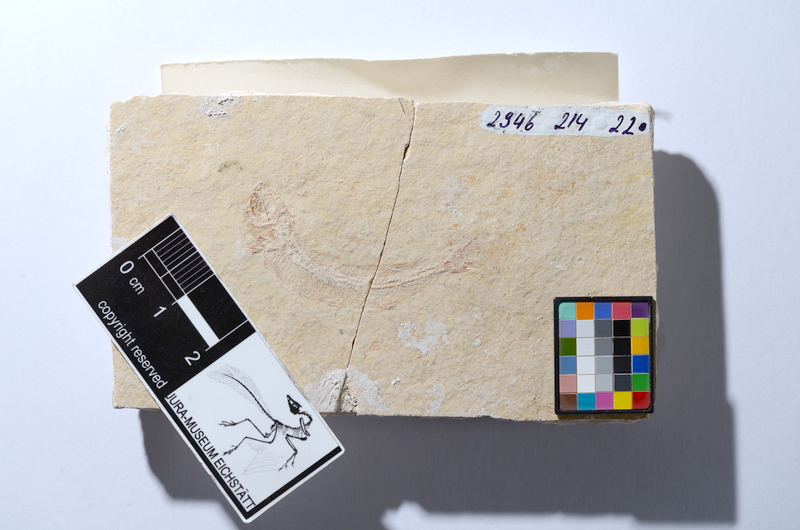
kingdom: Animalia
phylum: Chordata
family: Allothrissopidae
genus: Allothrissops
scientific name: Allothrissops mesogaster
